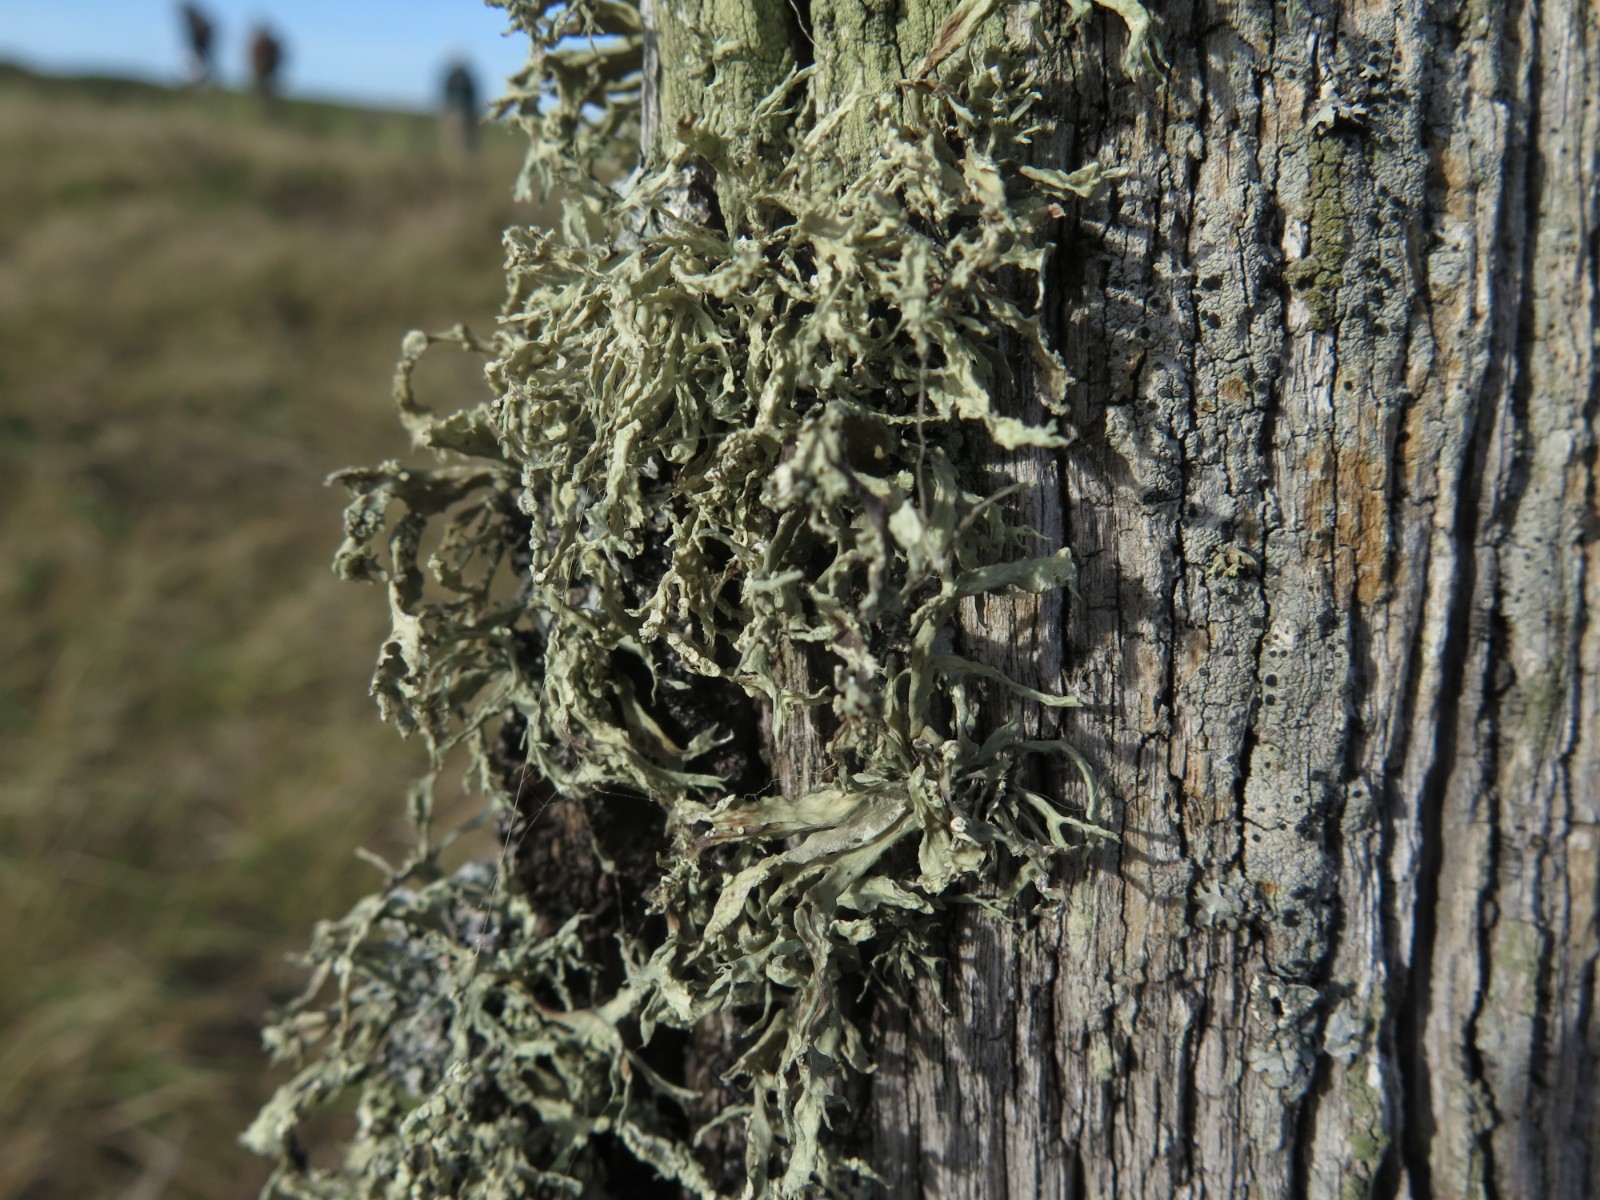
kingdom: Fungi
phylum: Ascomycota
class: Lecanoromycetes
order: Lecanorales
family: Ramalinaceae
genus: Ramalina
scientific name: Ramalina farinacea
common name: melet grenlav
